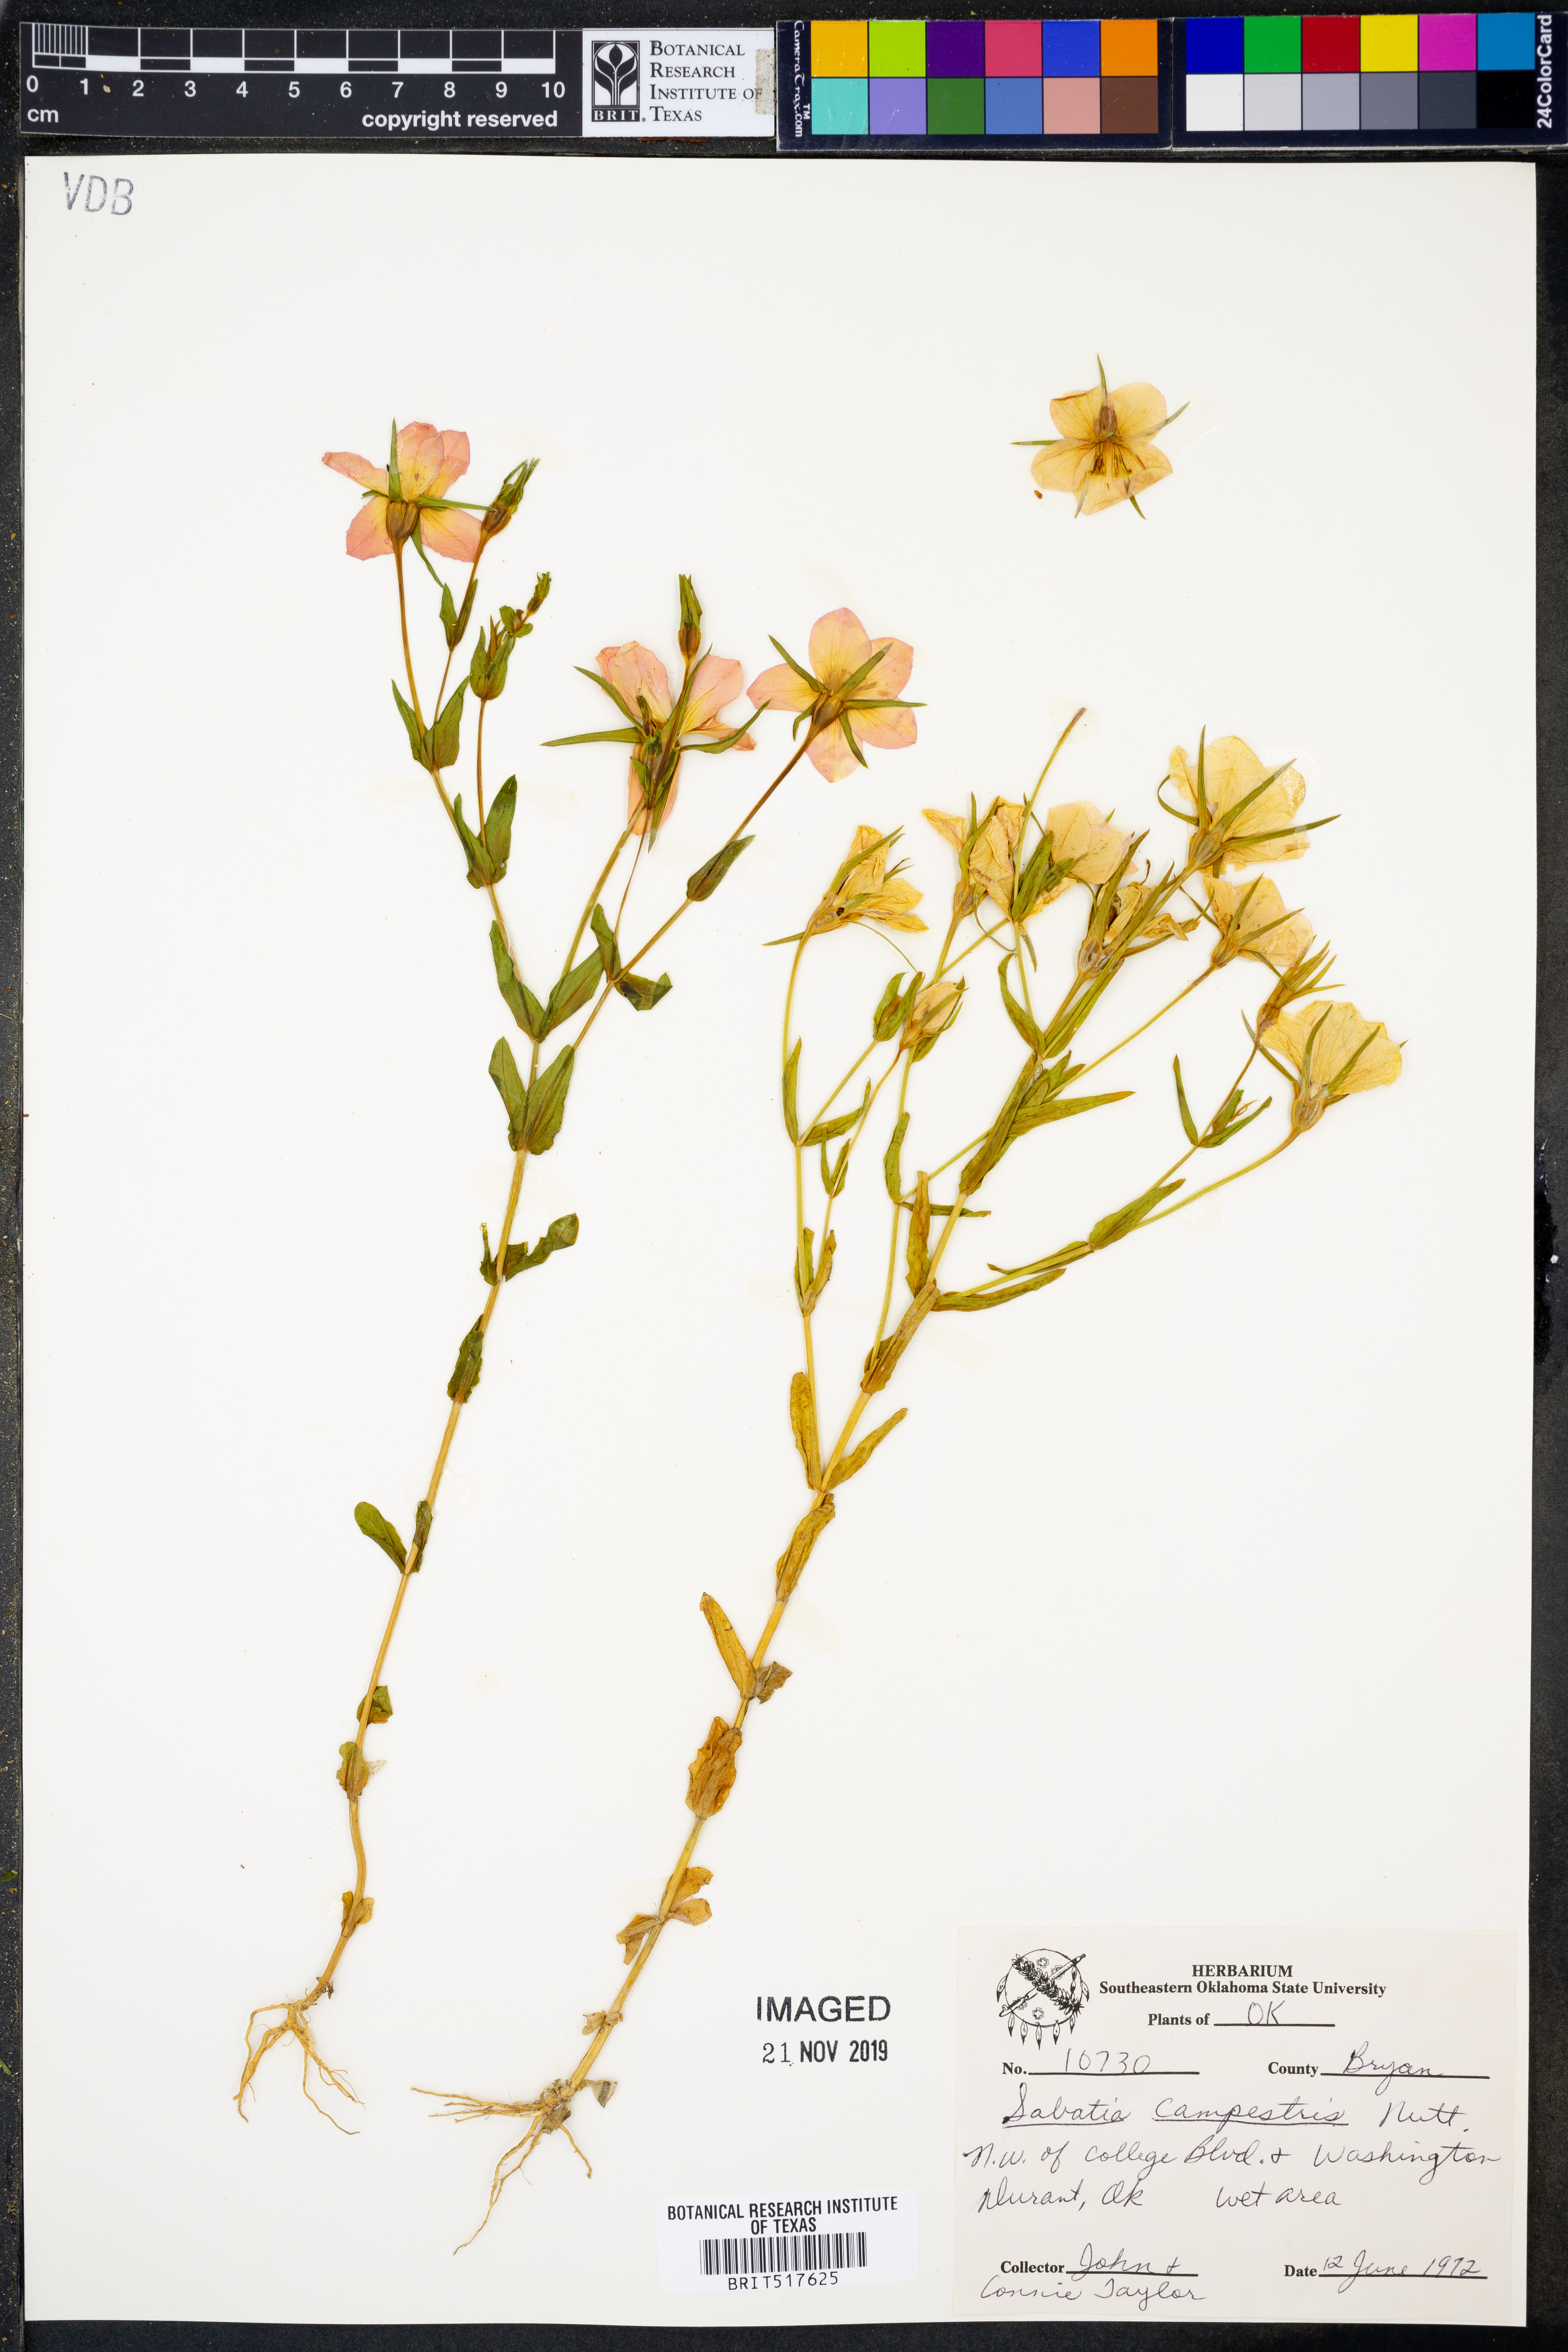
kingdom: Plantae
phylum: Tracheophyta
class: Magnoliopsida
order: Gentianales
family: Gentianaceae
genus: Sabatia
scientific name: Sabatia campestris
